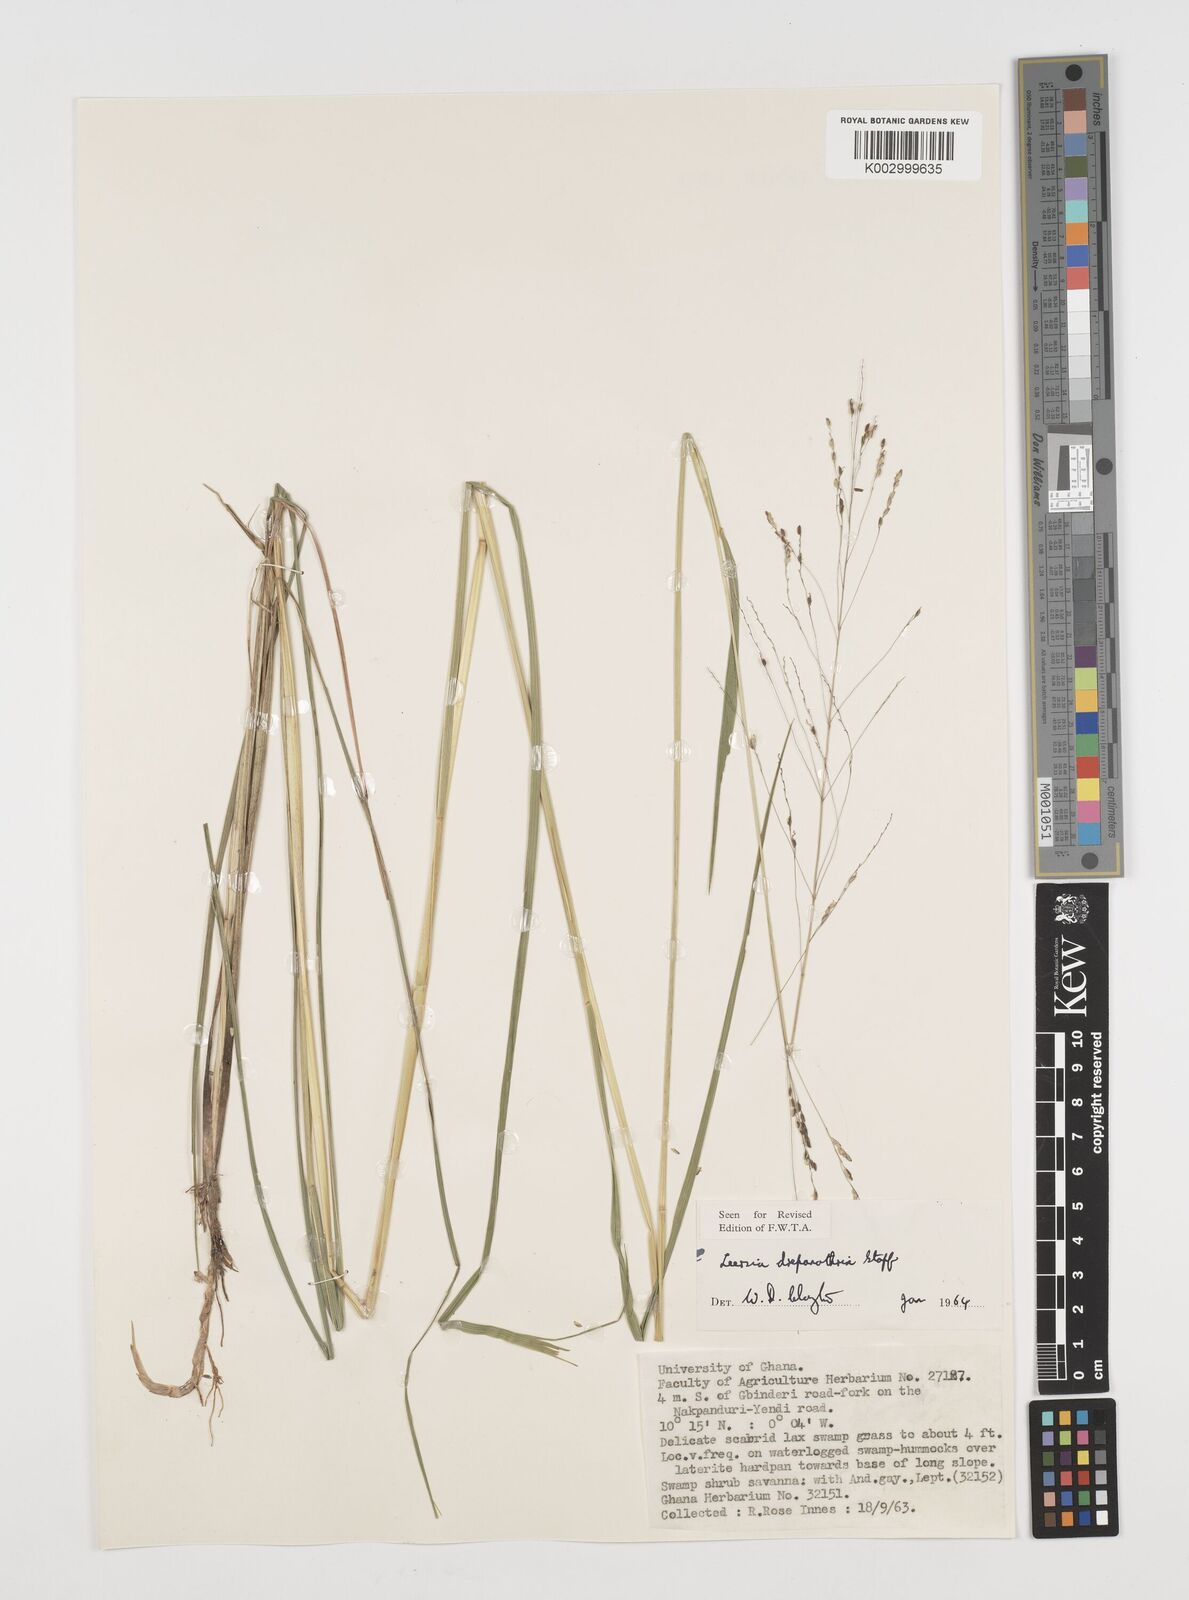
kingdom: Plantae
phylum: Tracheophyta
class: Liliopsida
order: Poales
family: Poaceae
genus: Leersia
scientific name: Leersia drepanothrix
